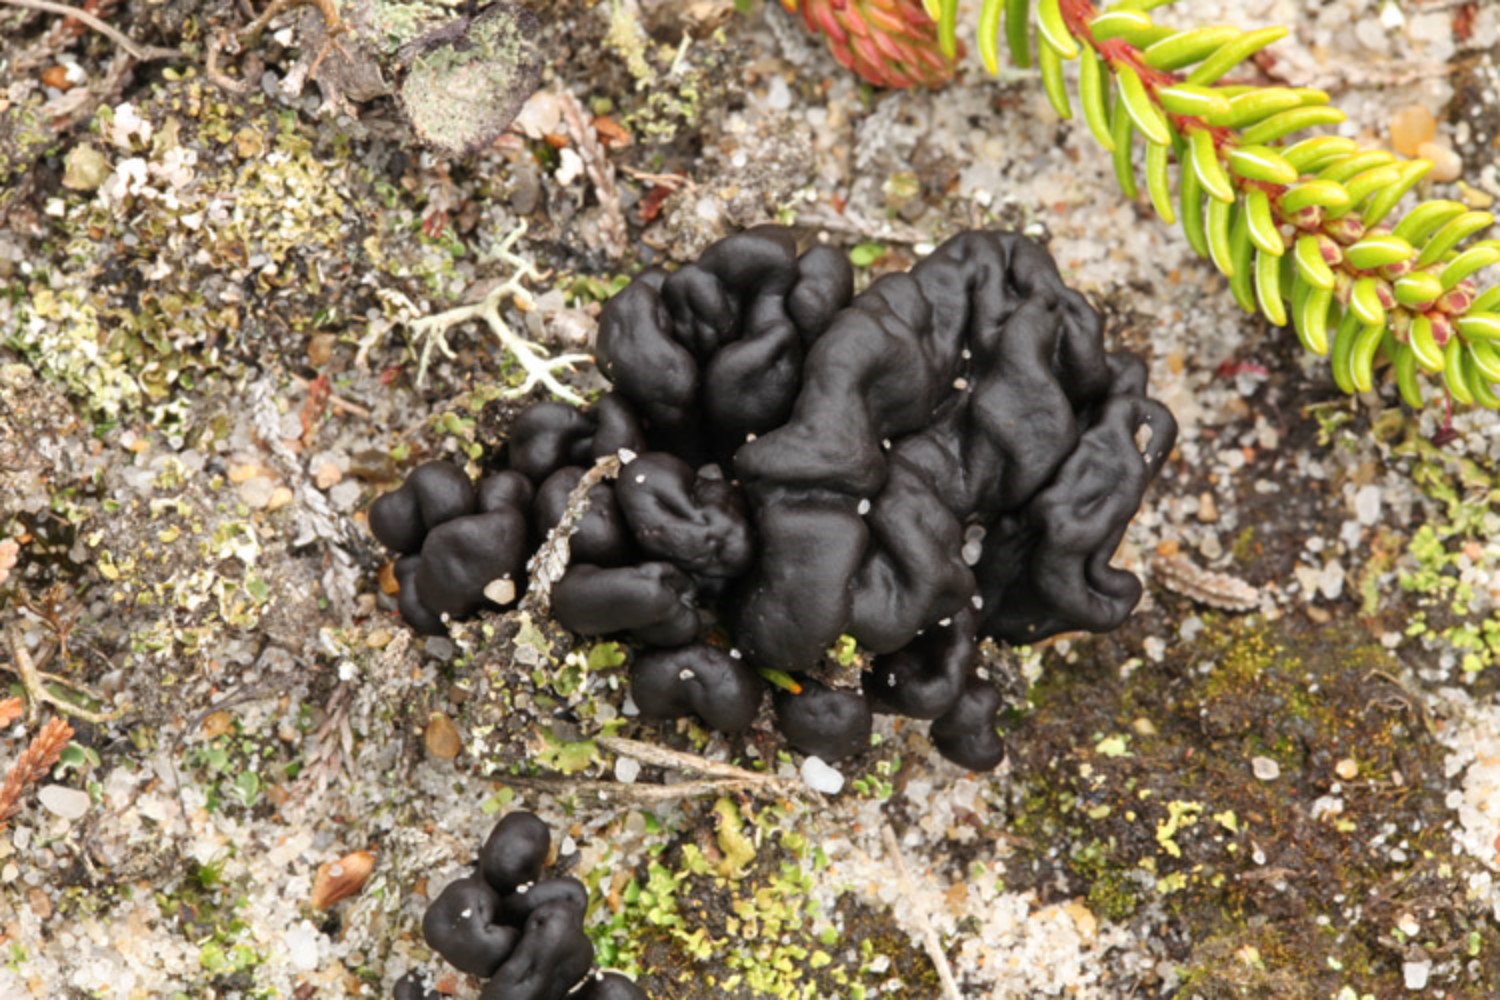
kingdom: Fungi
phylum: Ascomycota
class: Geoglossomycetes
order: Geoglossales
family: Geoglossaceae
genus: Sabuloglossum
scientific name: Sabuloglossum arenarium
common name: klit-jordtunge
